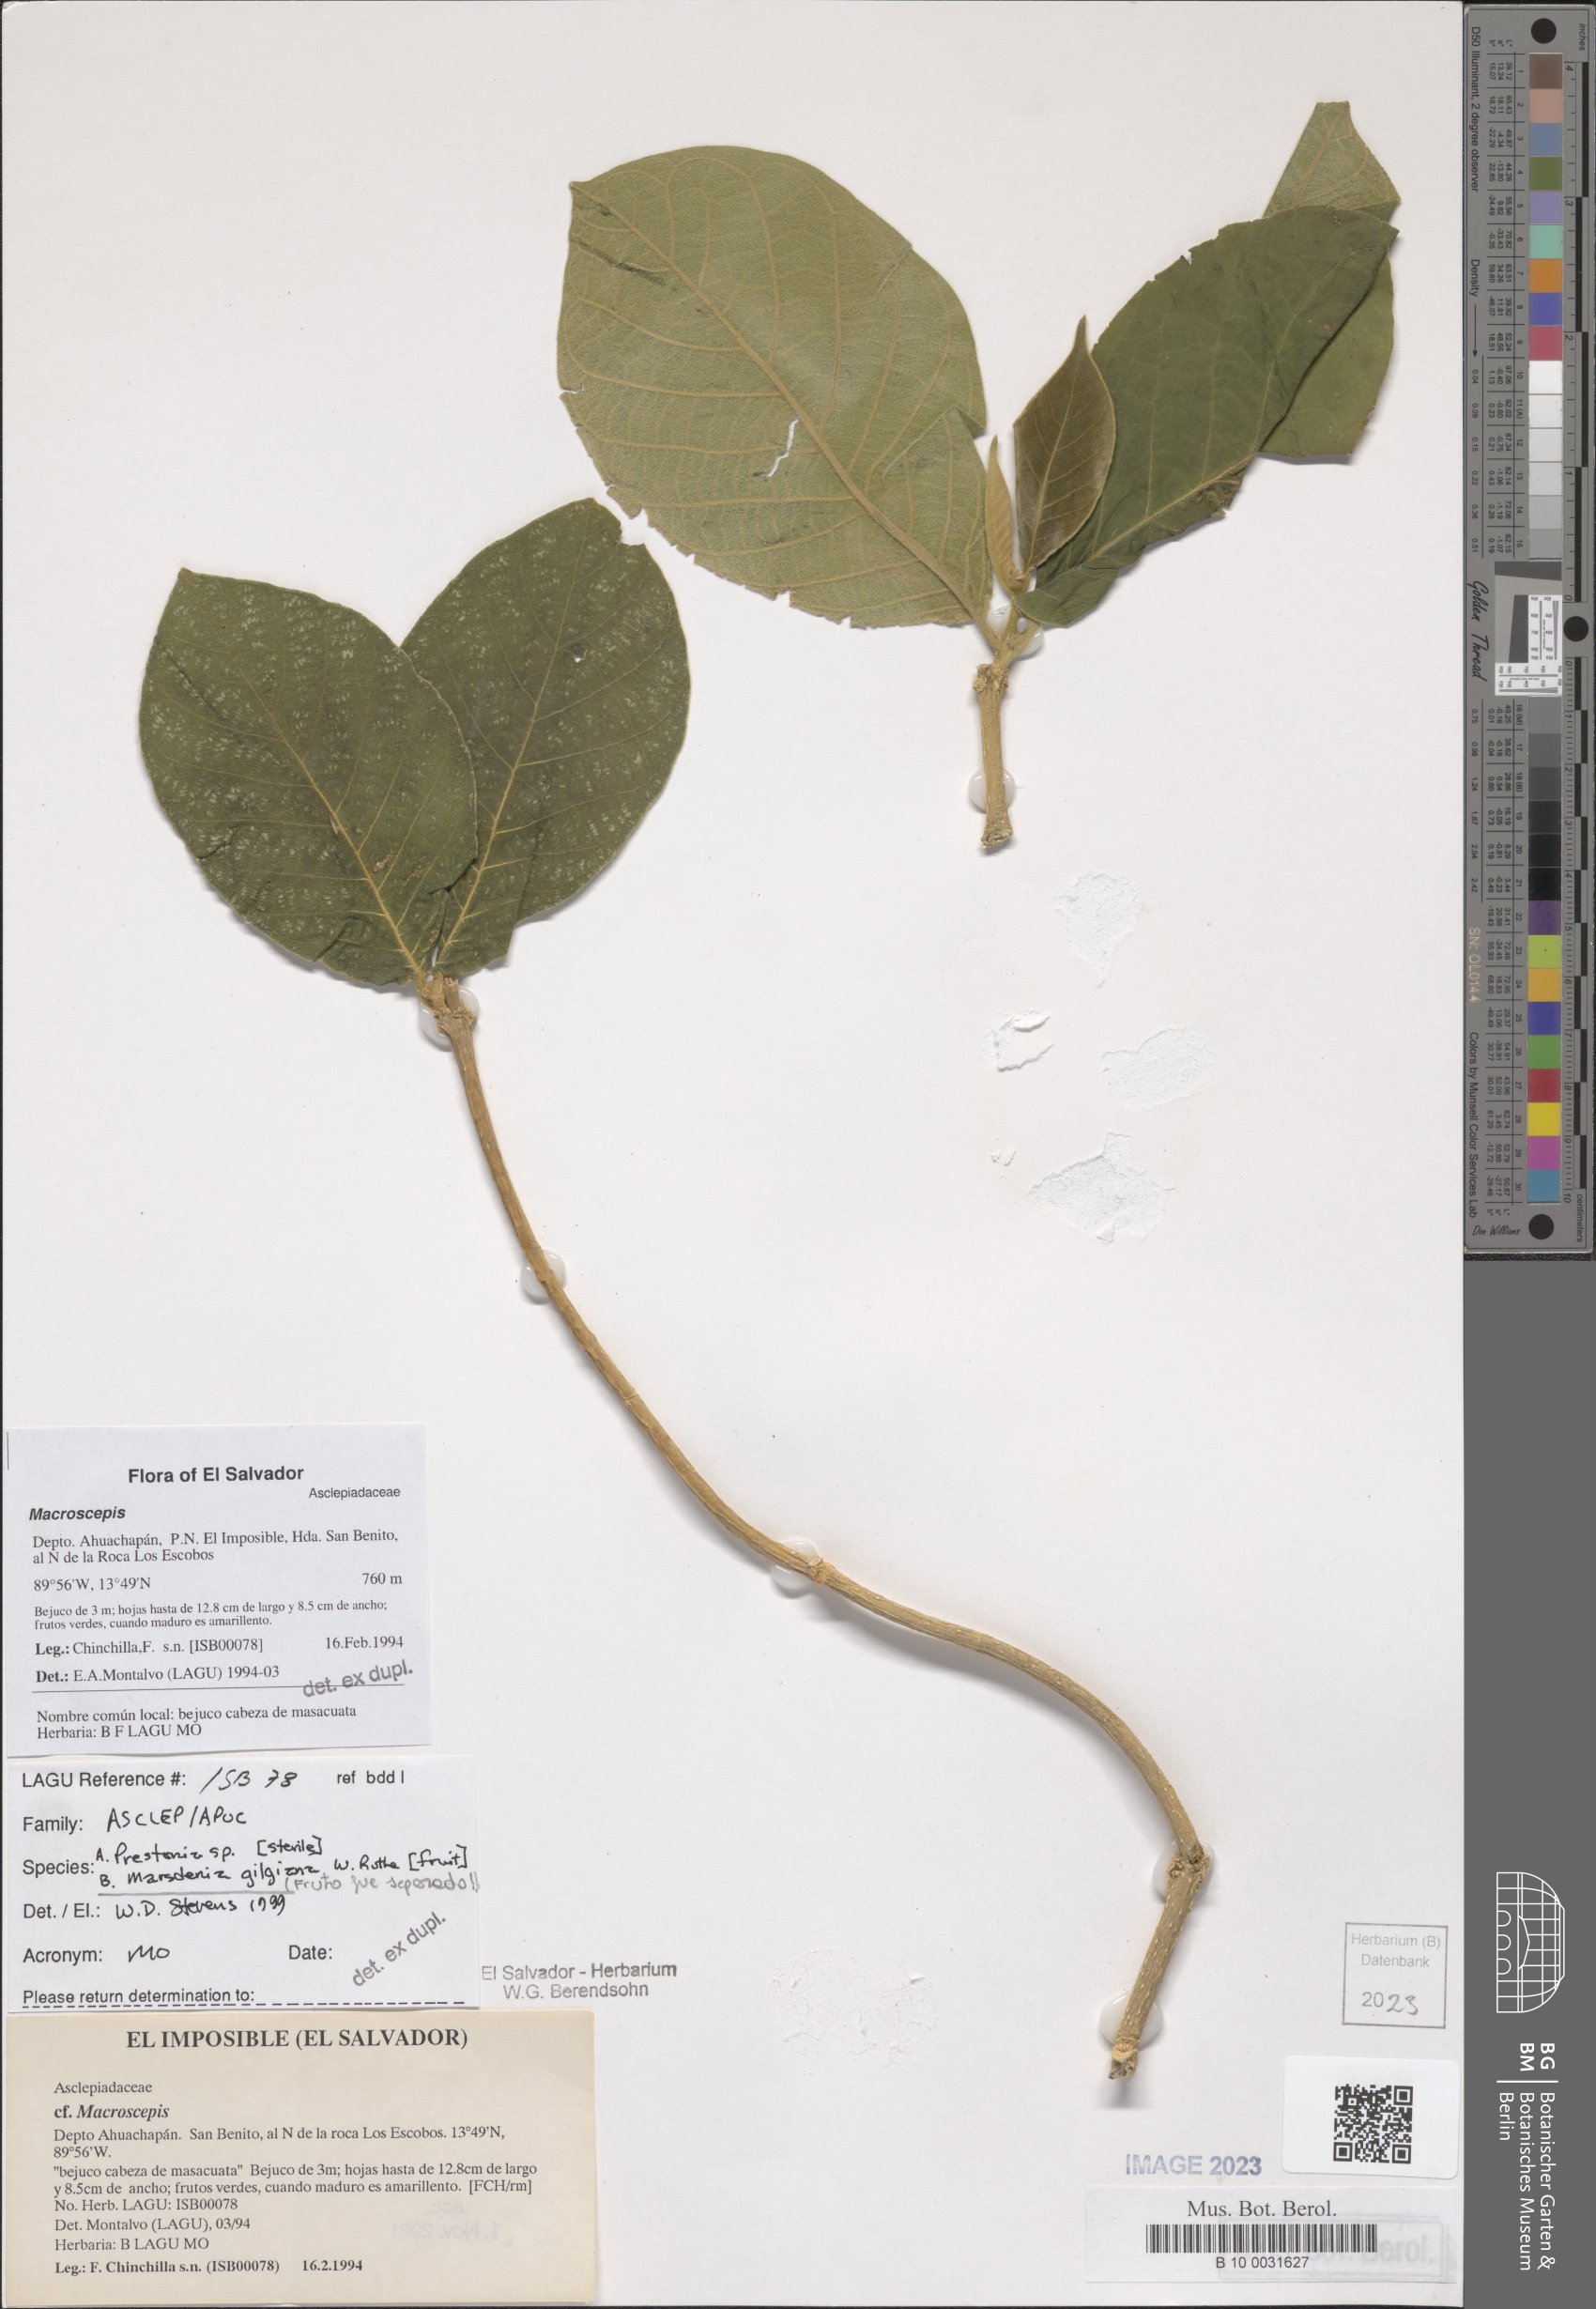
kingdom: Plantae
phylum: Tracheophyta
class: Magnoliopsida
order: Gentianales
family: Apocynaceae
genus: Macroscepis
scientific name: Macroscepis
